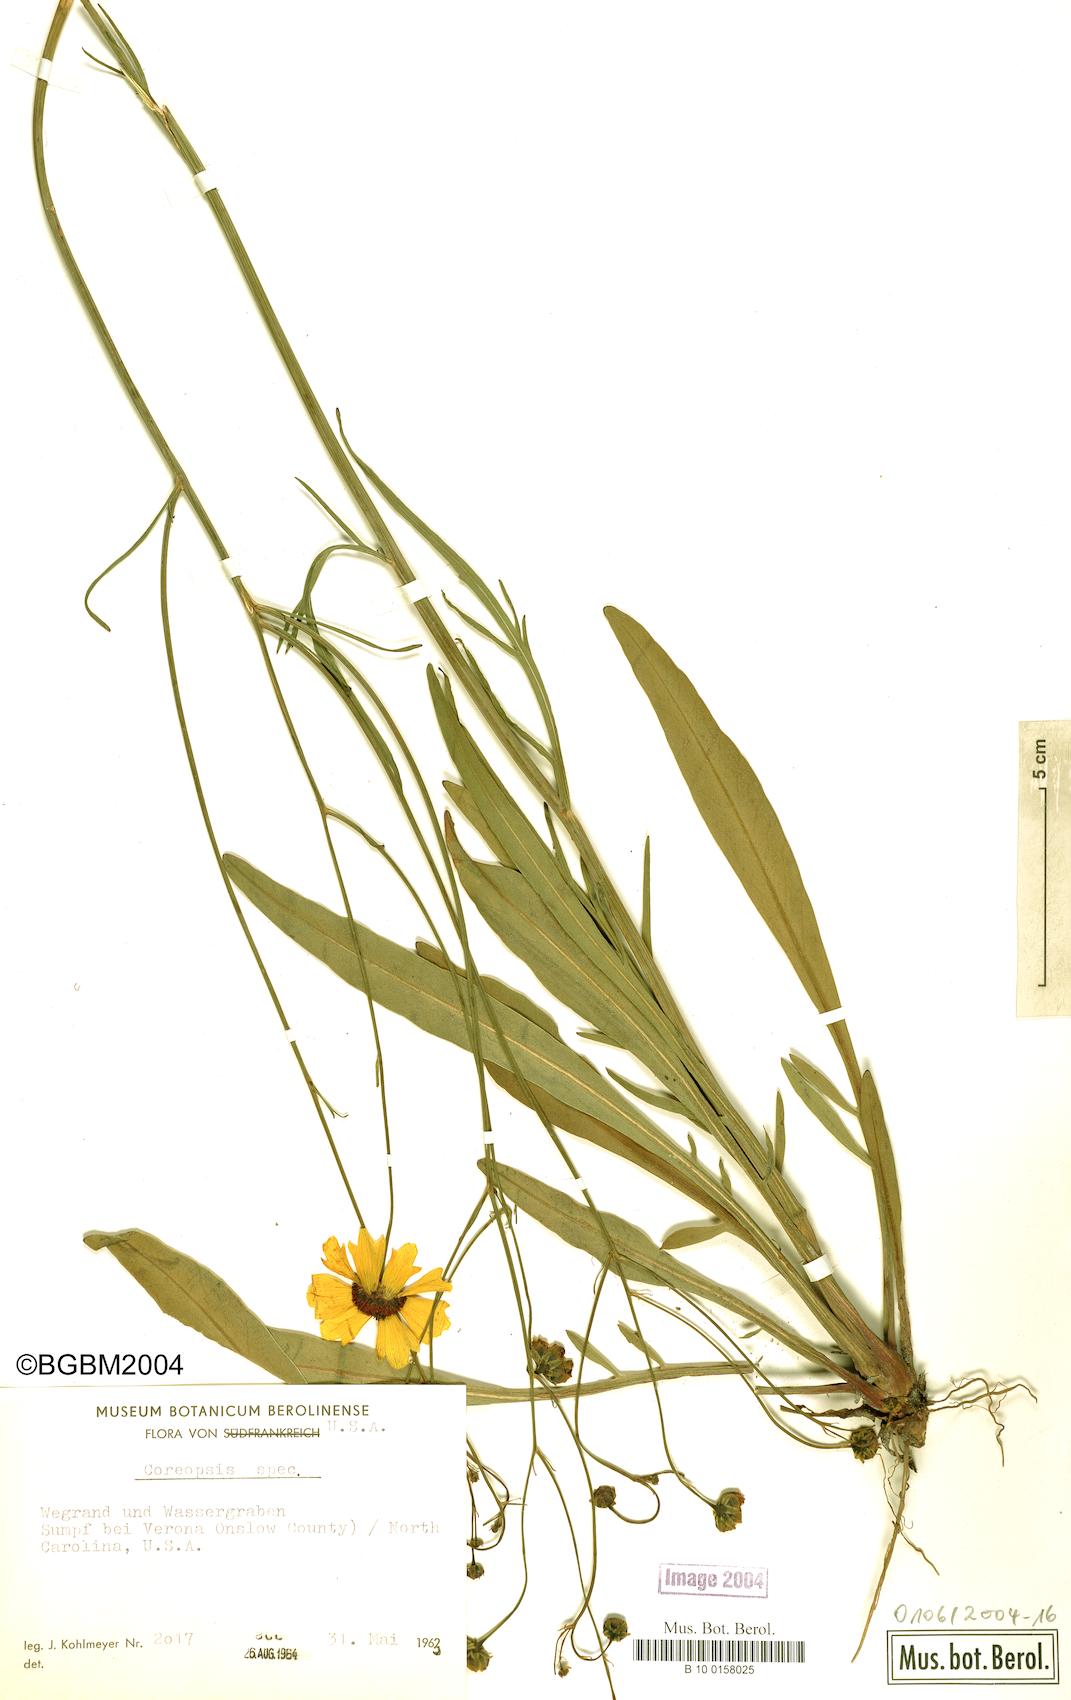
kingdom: Plantae
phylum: Tracheophyta
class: Magnoliopsida
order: Asterales
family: Asteraceae
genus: Coreopsis
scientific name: Coreopsis
